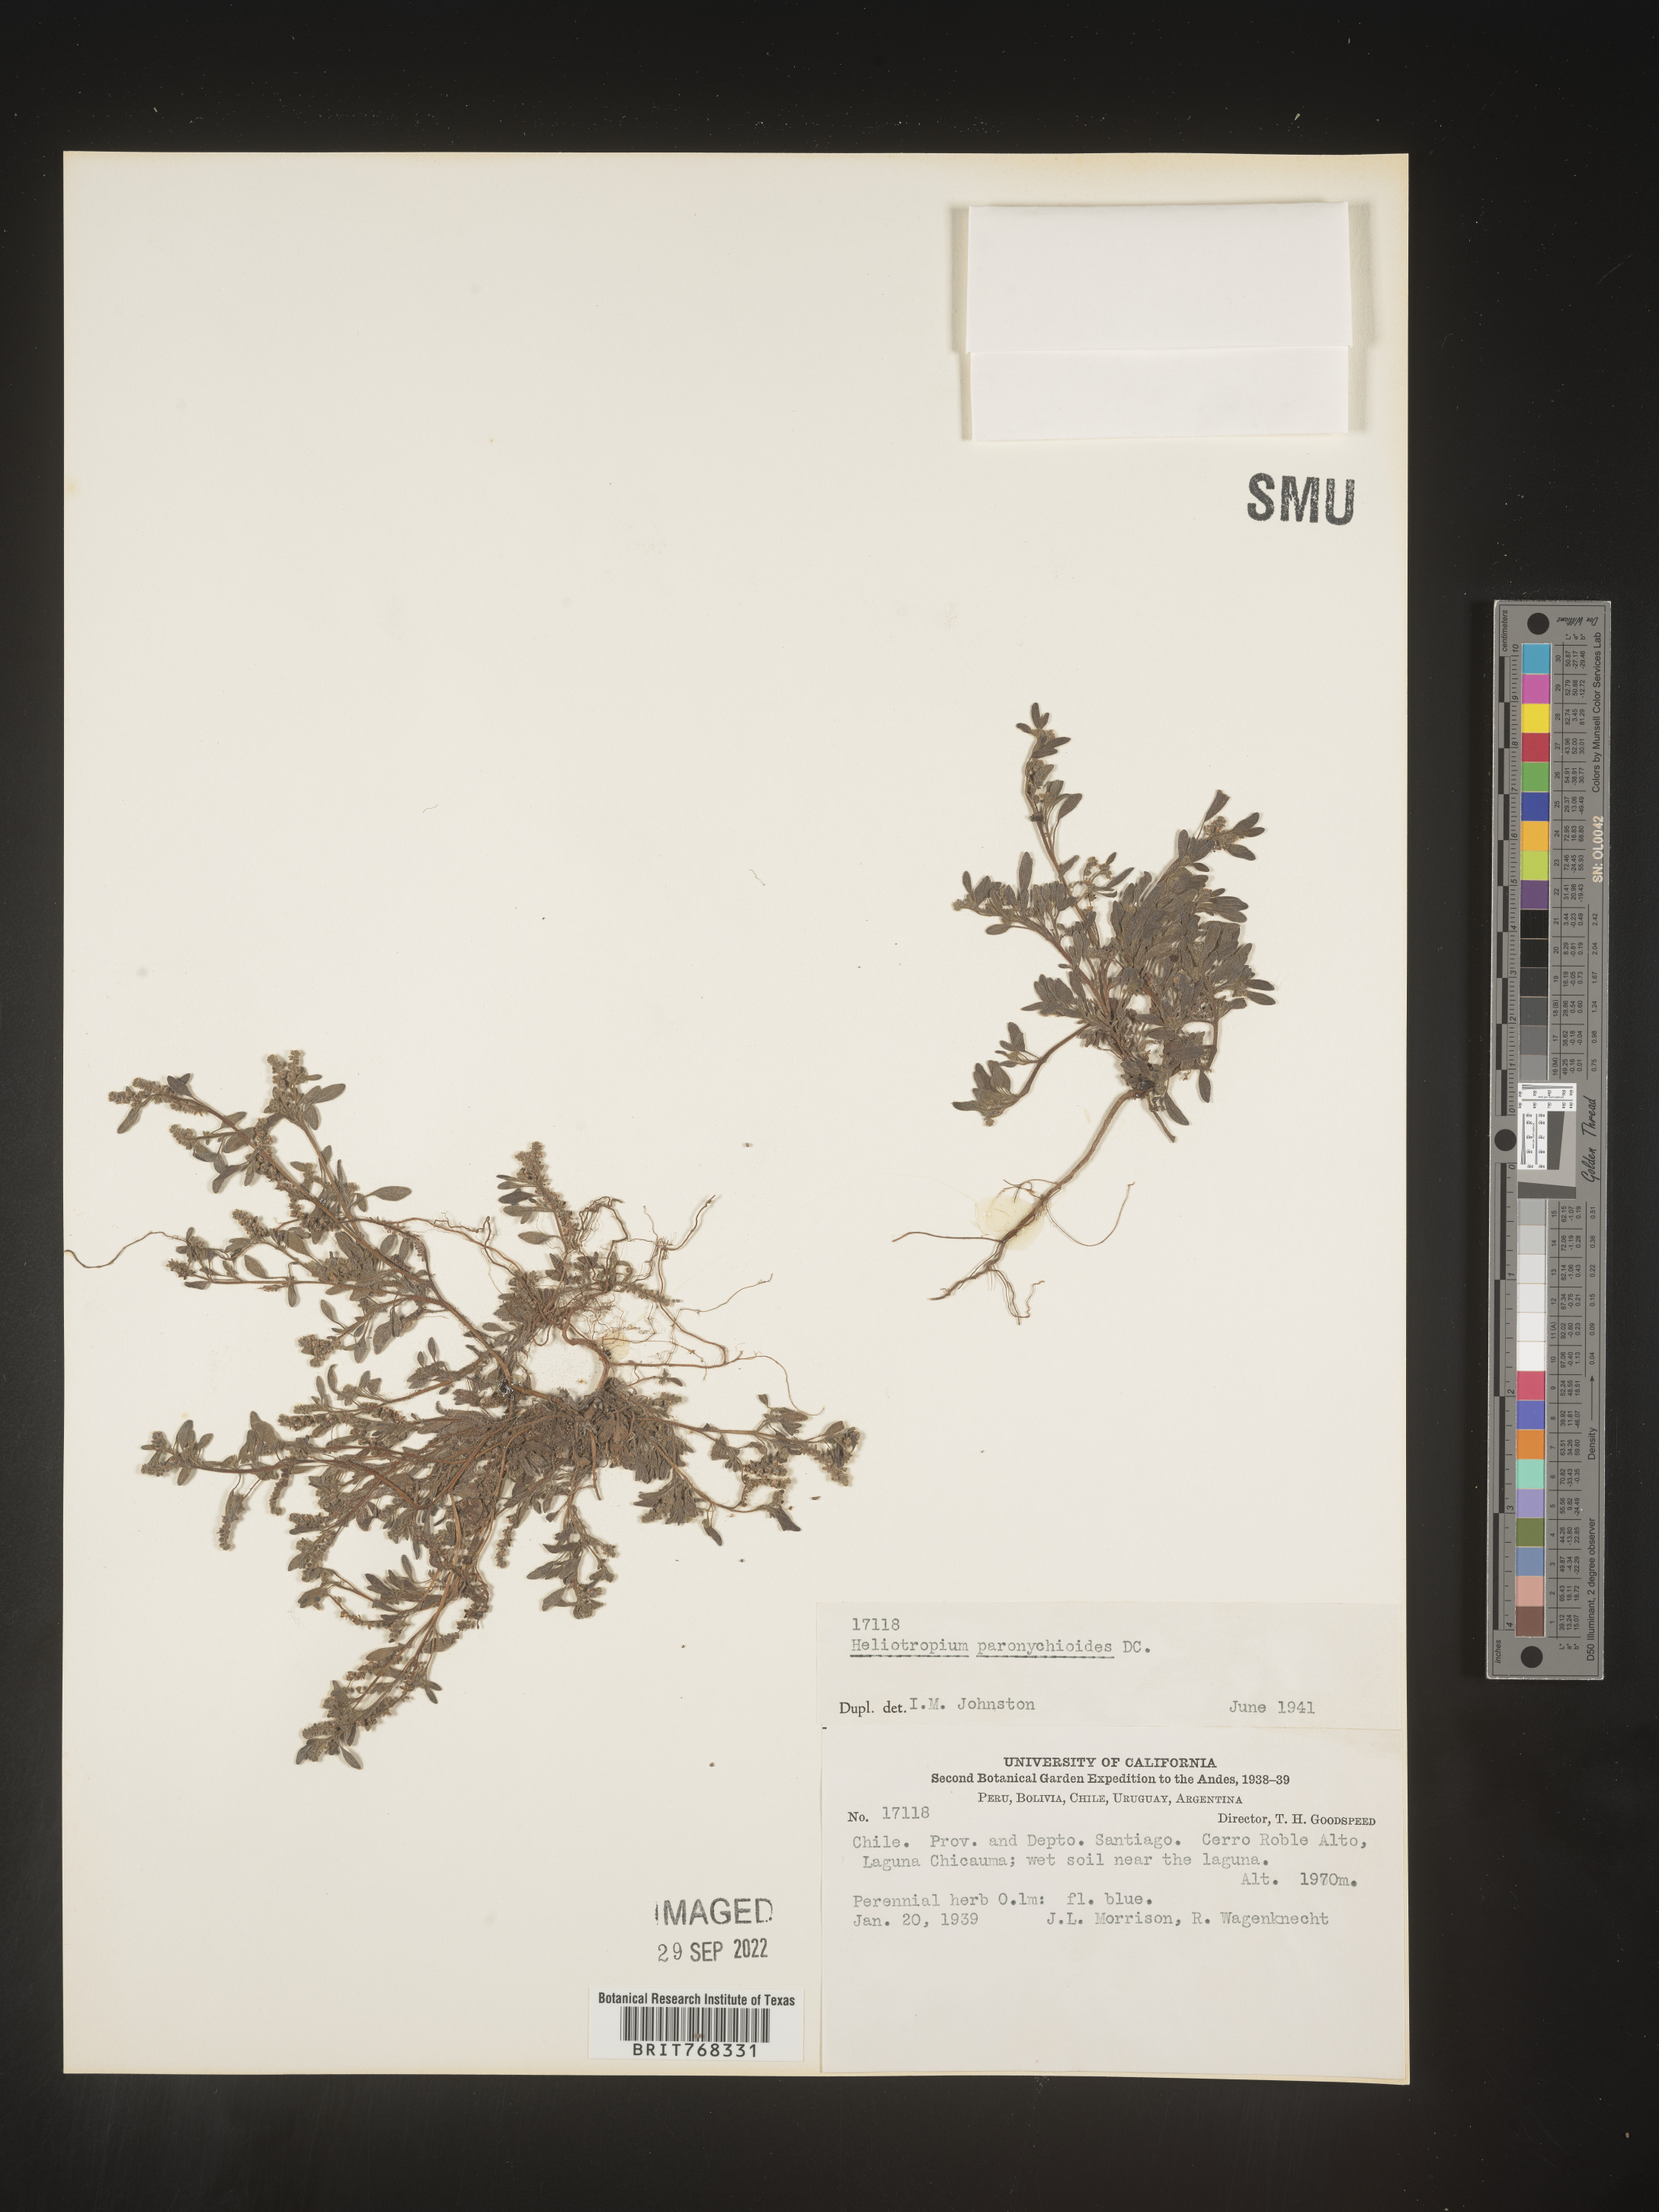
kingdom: Plantae
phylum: Tracheophyta
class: Magnoliopsida
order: Boraginales
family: Heliotropiaceae
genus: Heliotropium
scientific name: Heliotropium
